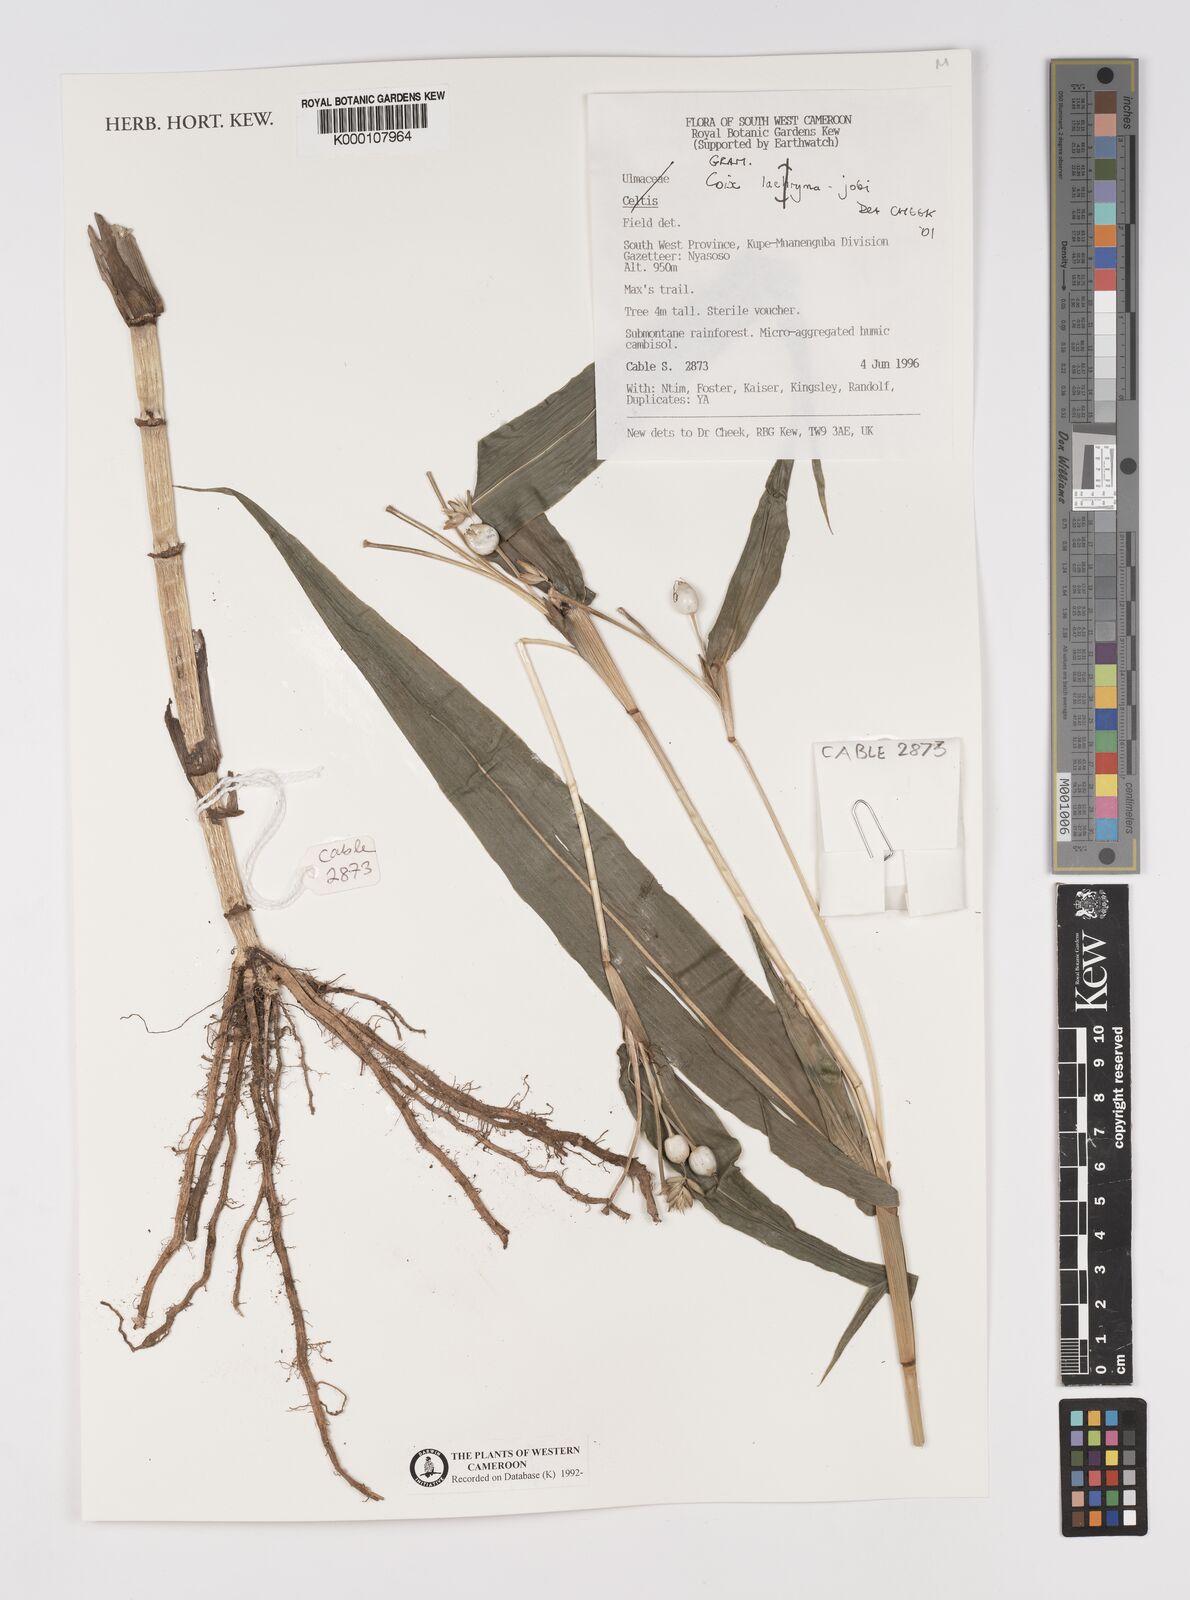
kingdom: Plantae
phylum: Tracheophyta
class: Liliopsida
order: Poales
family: Poaceae
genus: Coix
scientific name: Coix lacryma-jobi
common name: Job's tears
